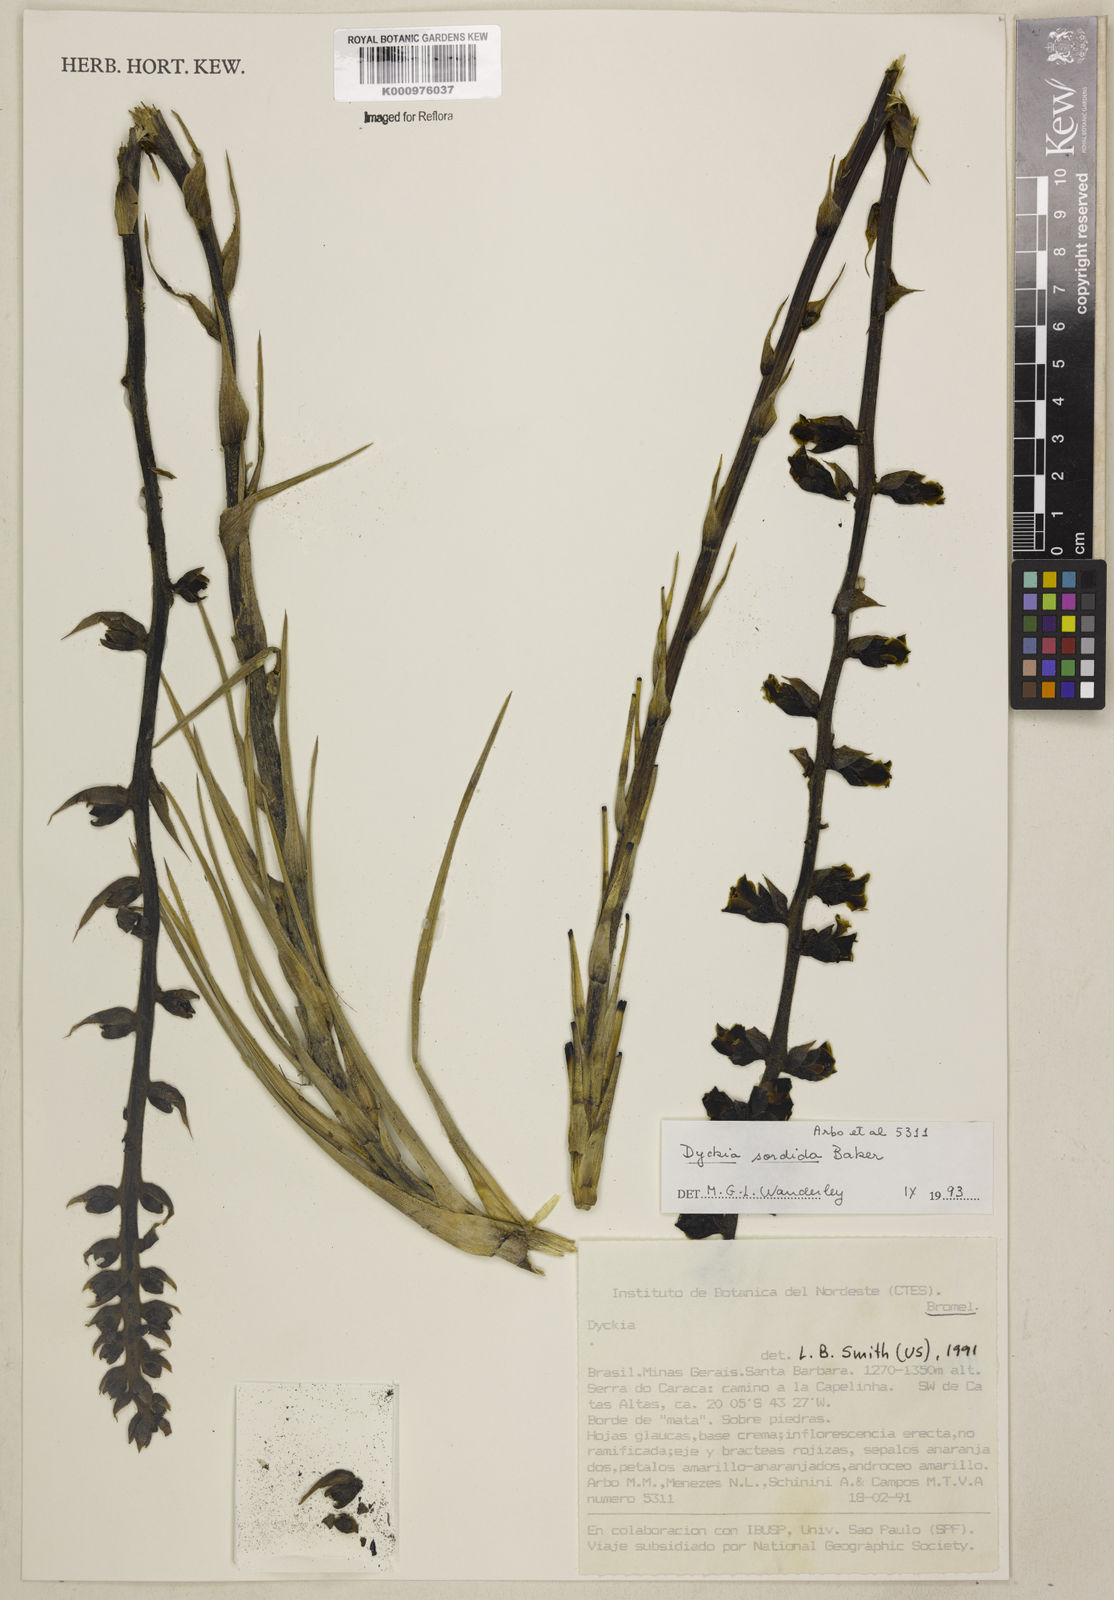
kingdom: Plantae
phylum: Tracheophyta
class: Liliopsida
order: Poales
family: Bromeliaceae
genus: Dyckia
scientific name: Dyckia sordida
